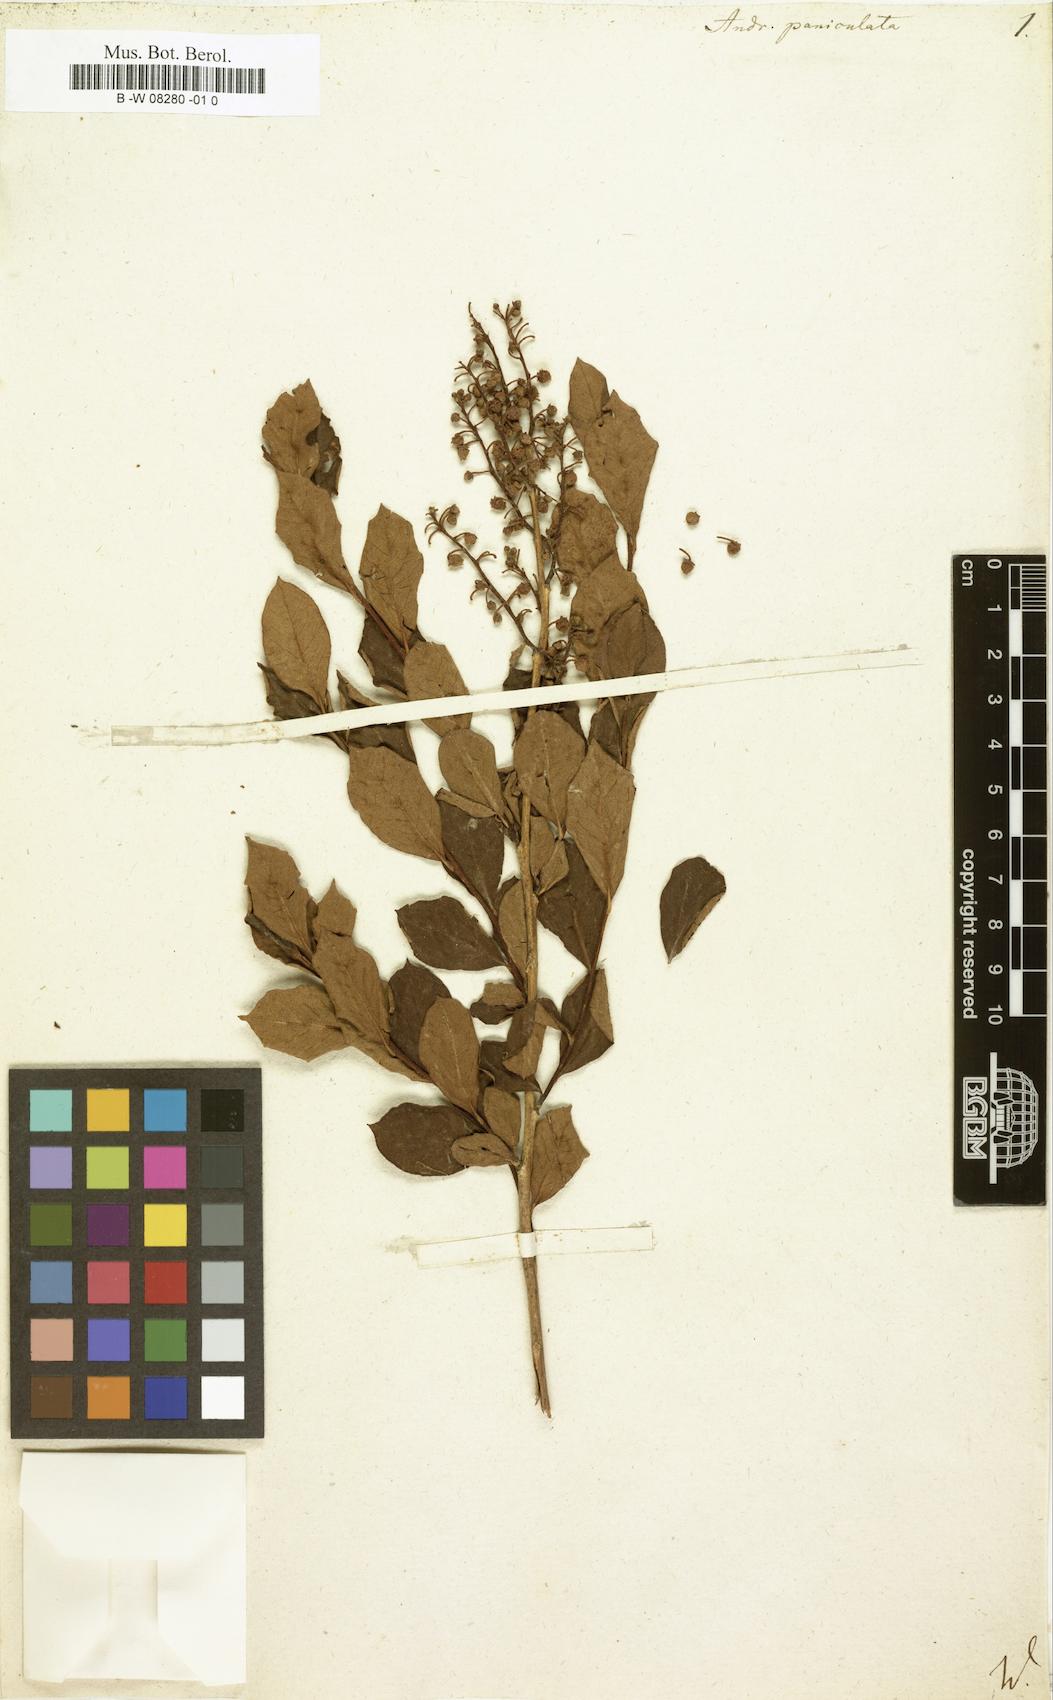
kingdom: Plantae
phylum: Tracheophyta
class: Magnoliopsida
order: Ericales
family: Ericaceae
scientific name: Ericaceae
